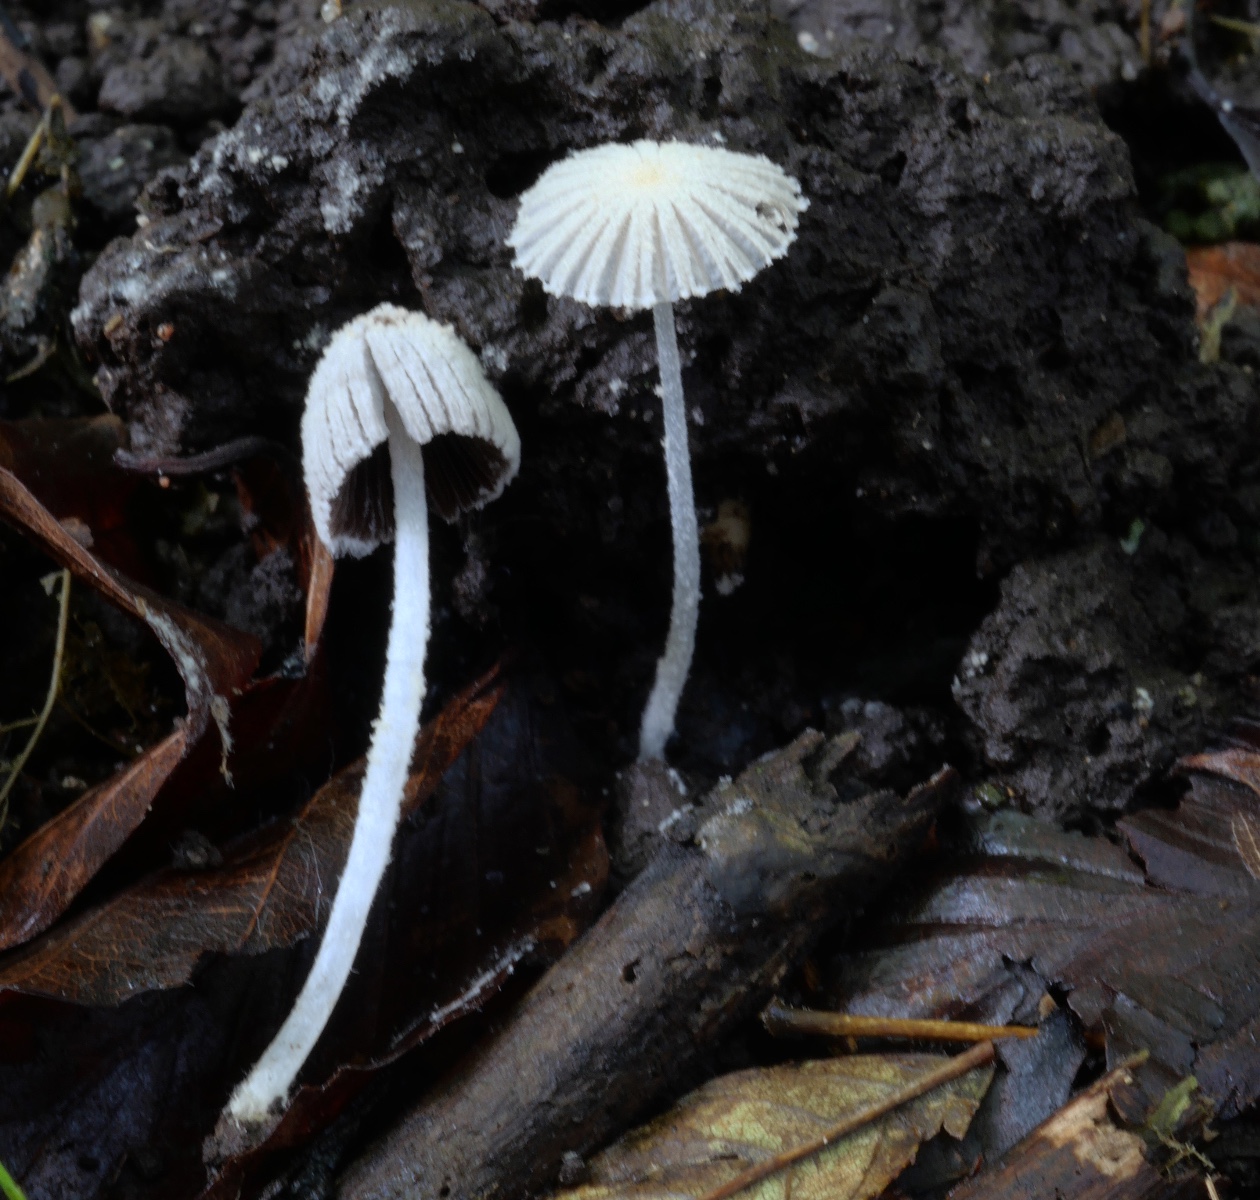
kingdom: Fungi
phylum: Basidiomycota
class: Agaricomycetes
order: Agaricales
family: Psathyrellaceae
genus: Coprinopsis
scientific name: Coprinopsis cortinata
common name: slør-blækhat
